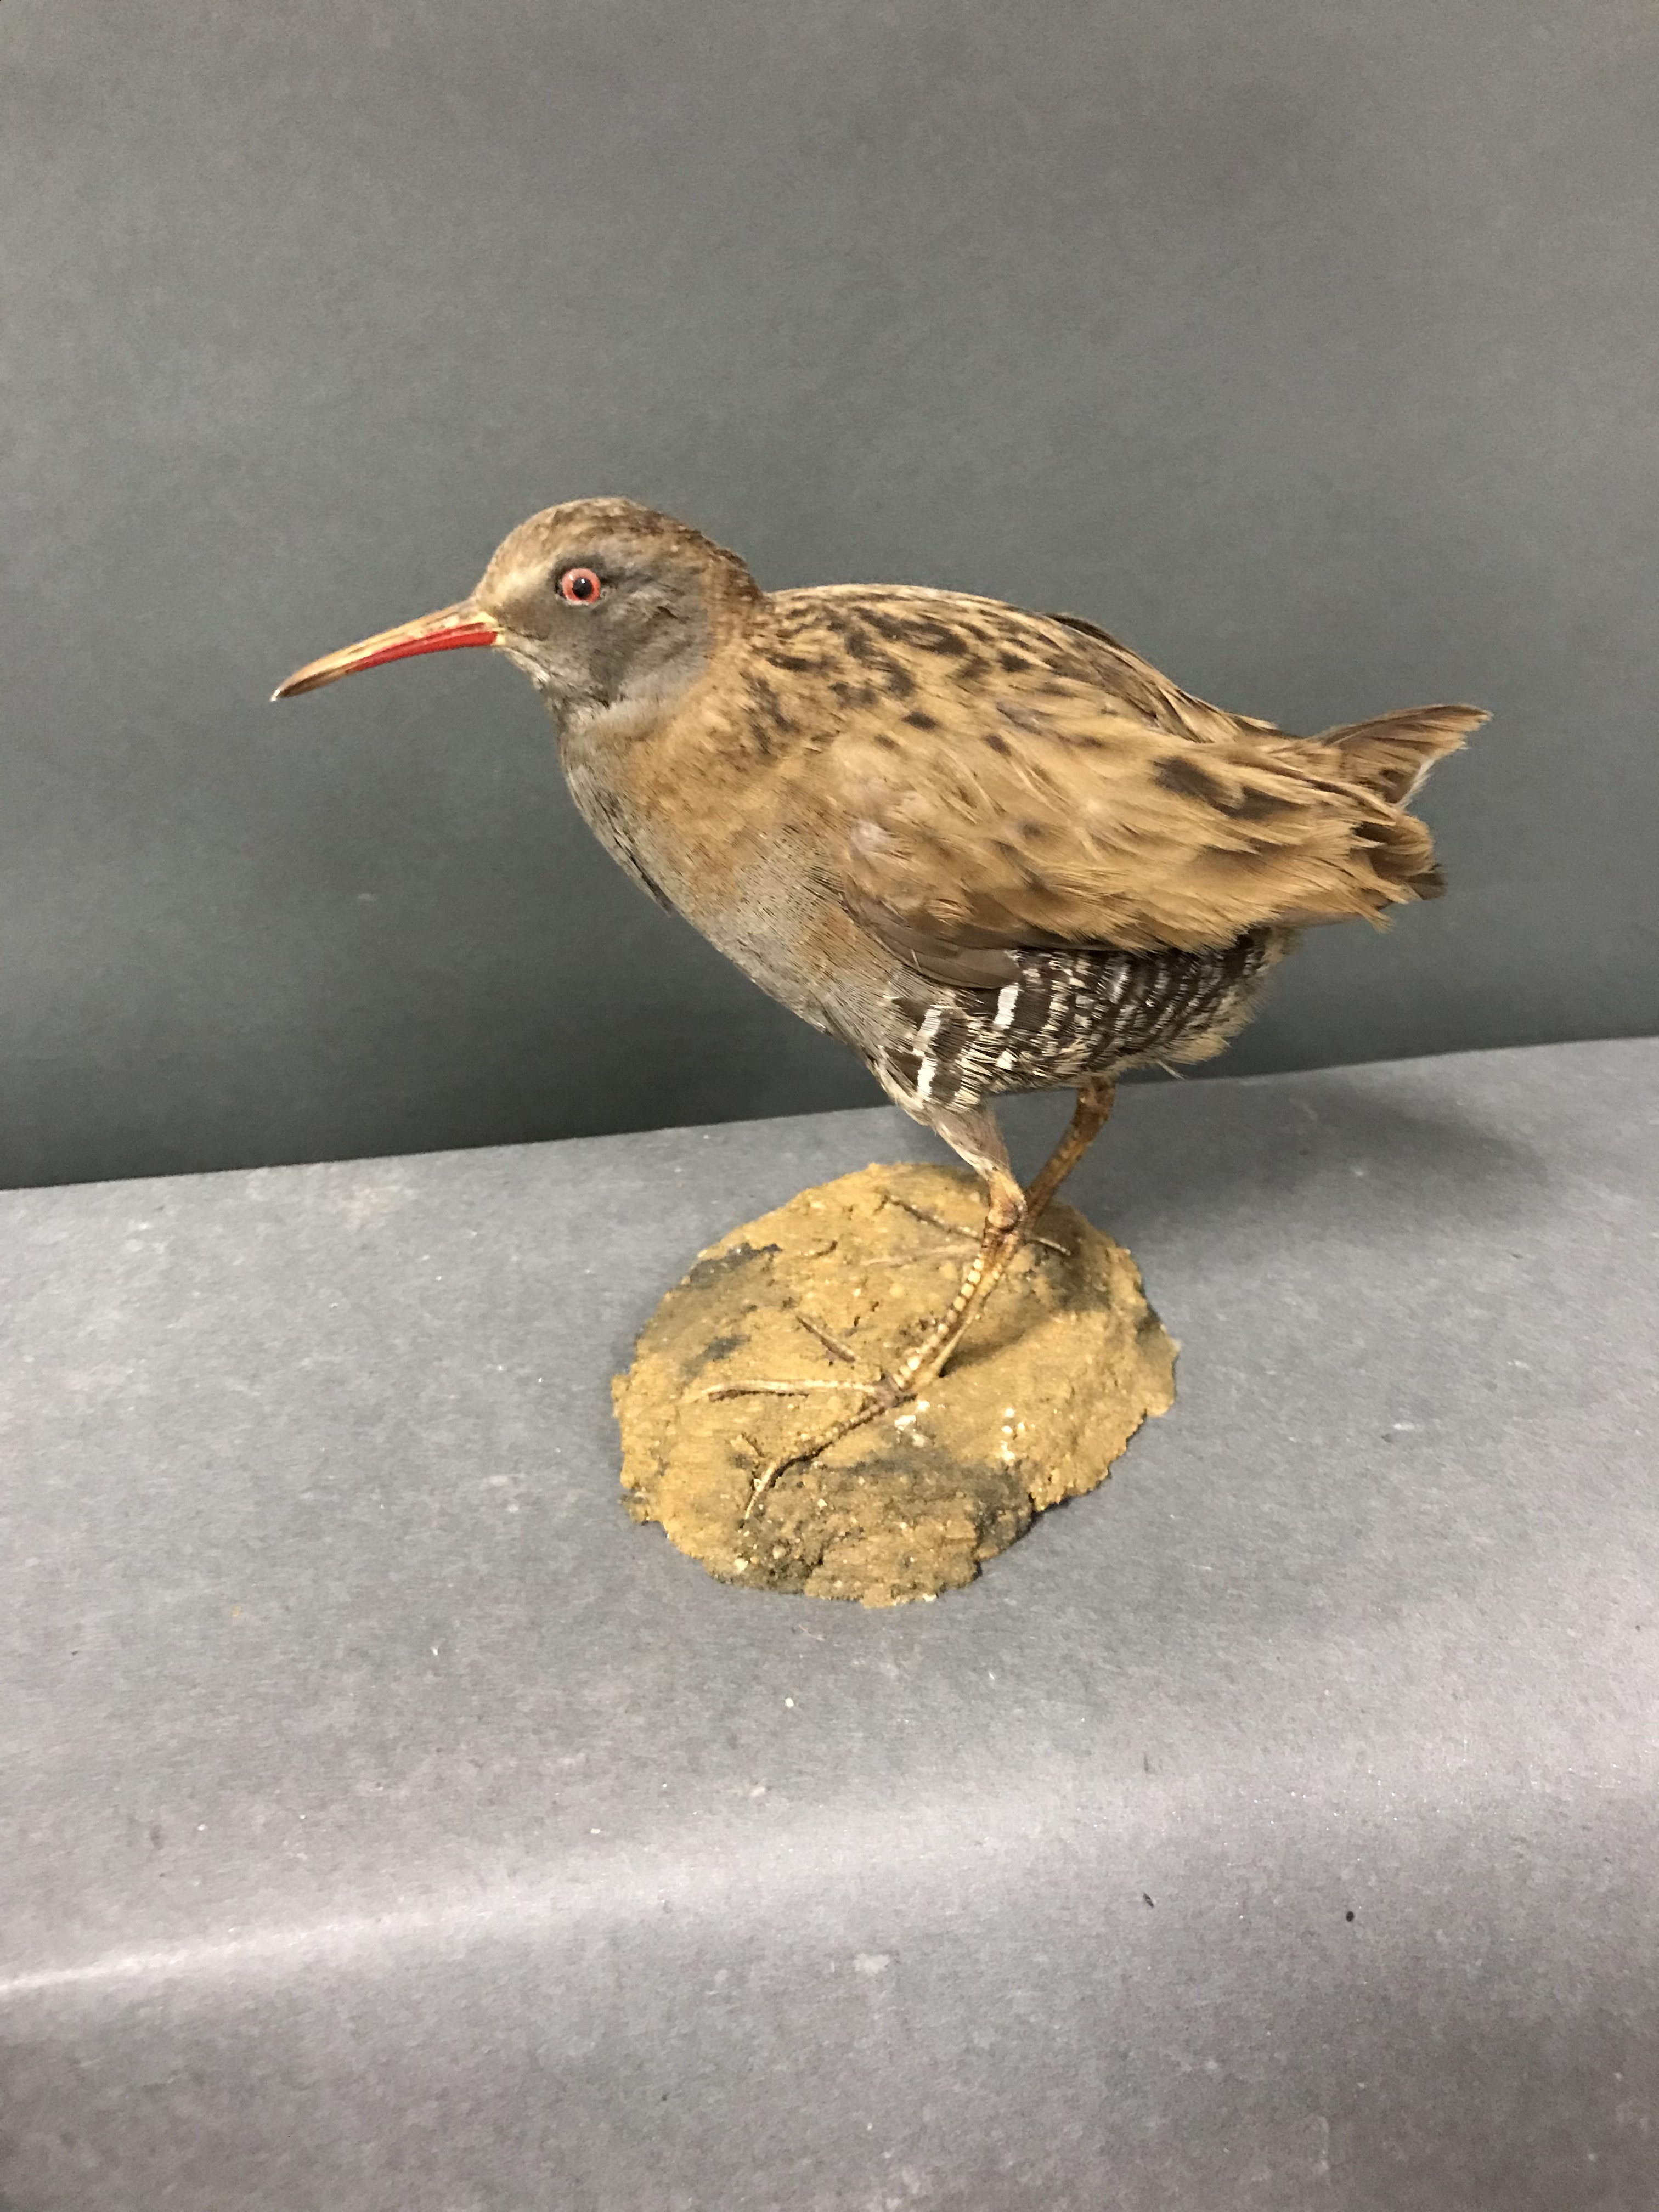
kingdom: Animalia
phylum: Chordata
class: Aves
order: Gruiformes
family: Rallidae
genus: Rallus
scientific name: Rallus aquaticus
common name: Water rail
